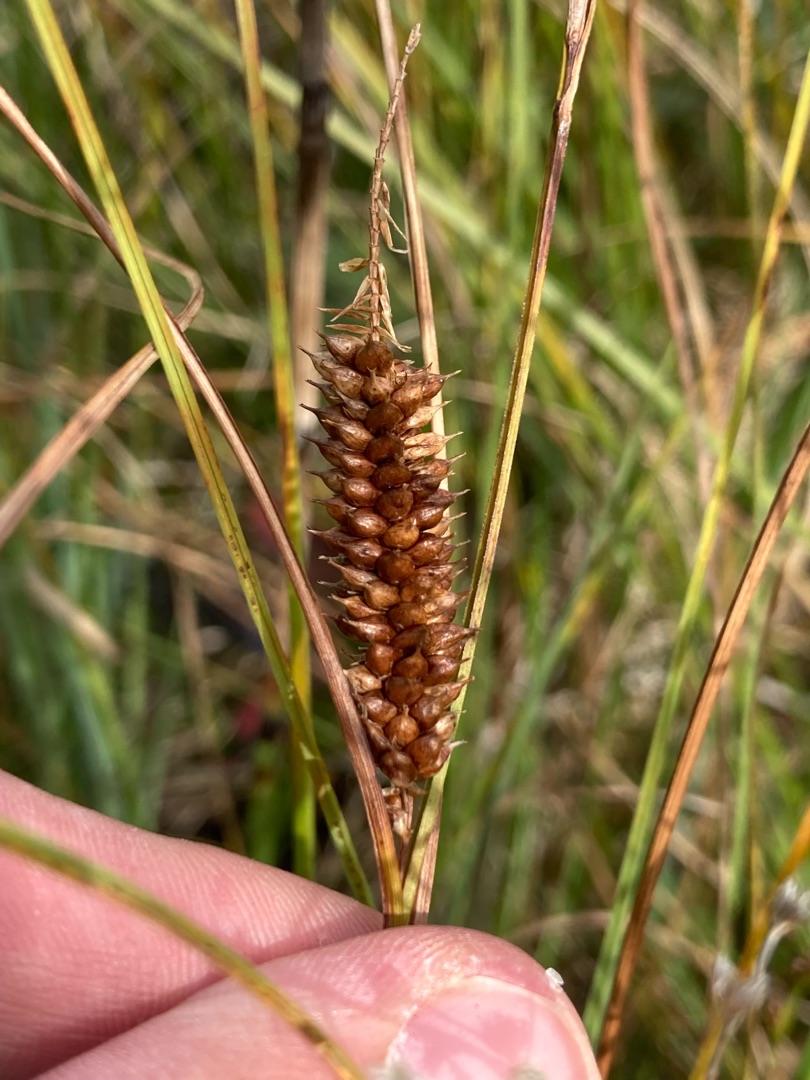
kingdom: Plantae
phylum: Tracheophyta
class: Liliopsida
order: Poales
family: Cyperaceae
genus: Carex
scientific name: Carex rostrata
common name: Næb-star
